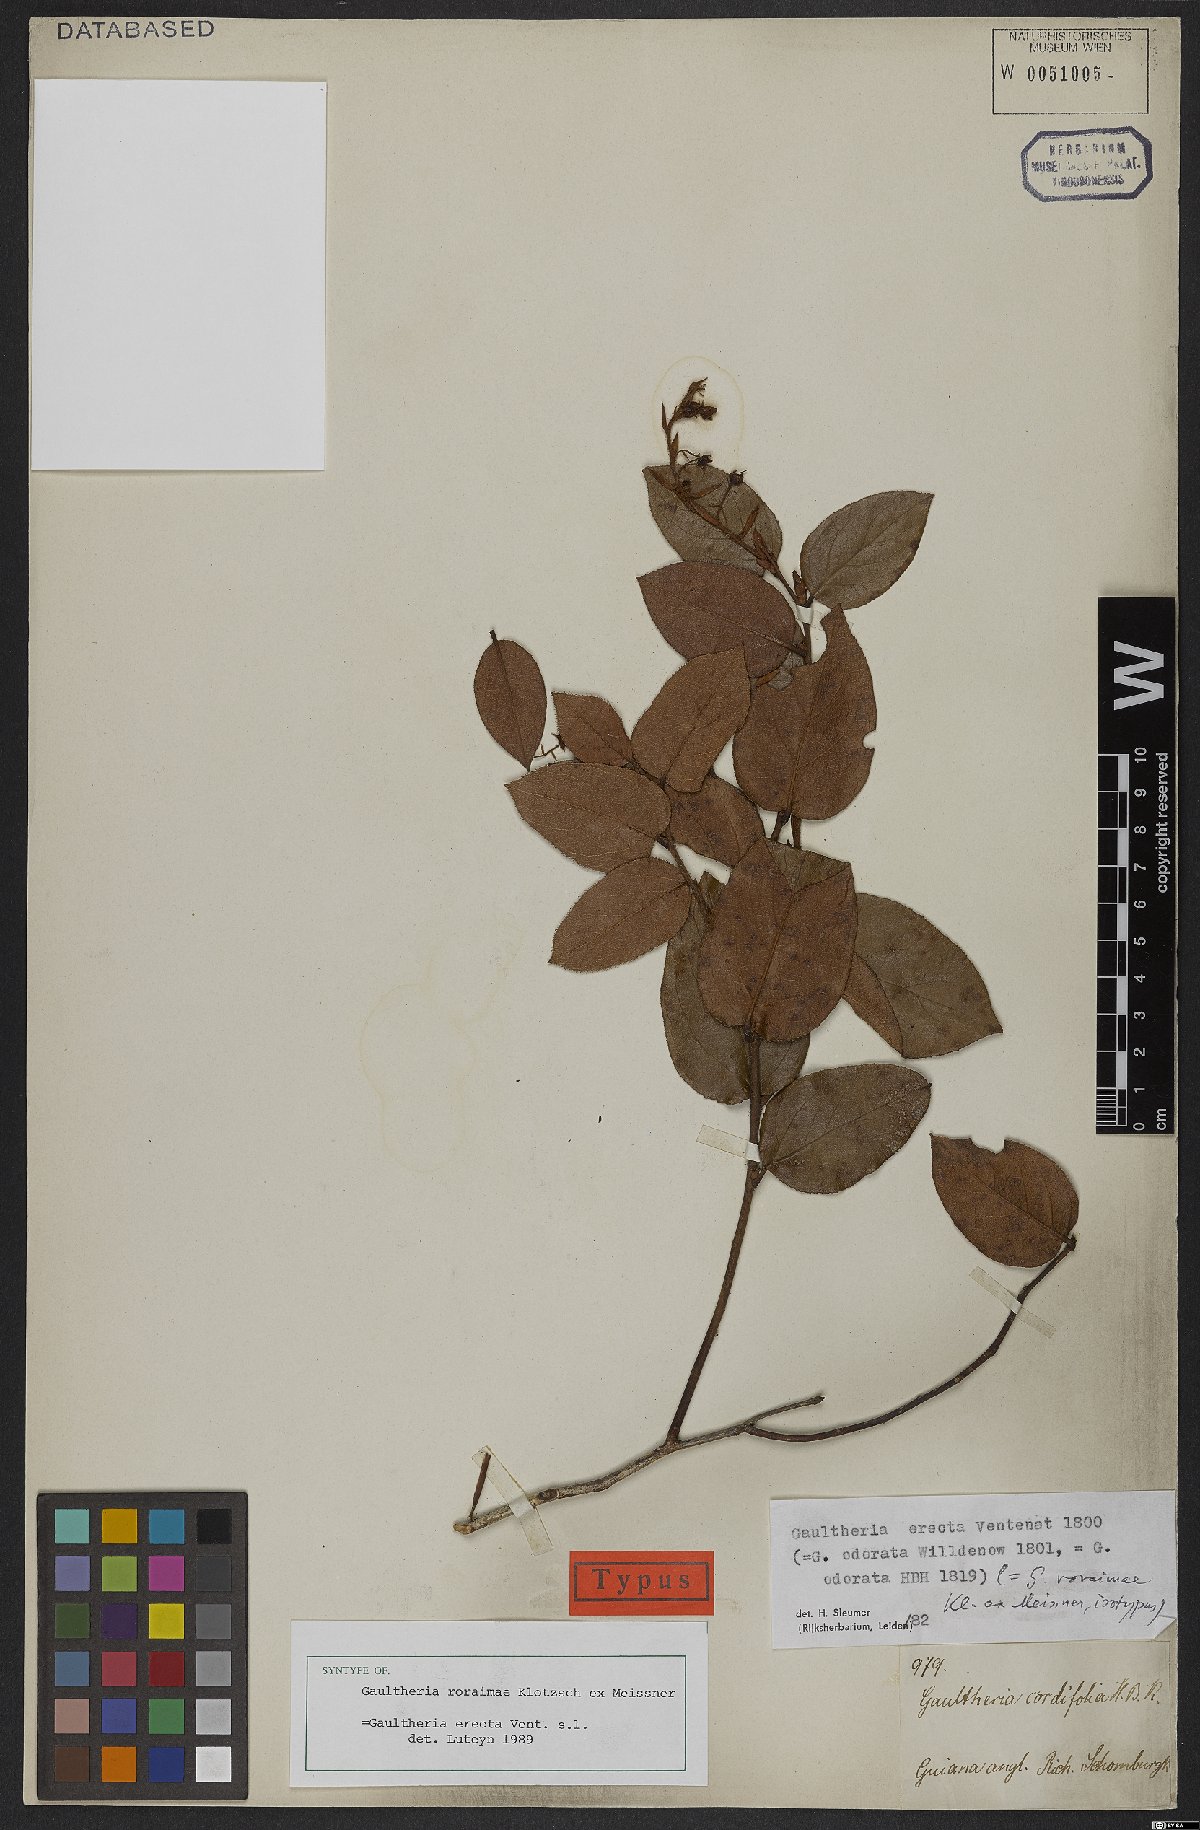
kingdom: Plantae
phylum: Tracheophyta
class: Magnoliopsida
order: Ericales
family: Ericaceae
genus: Gaultheria
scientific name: Gaultheria erecta
